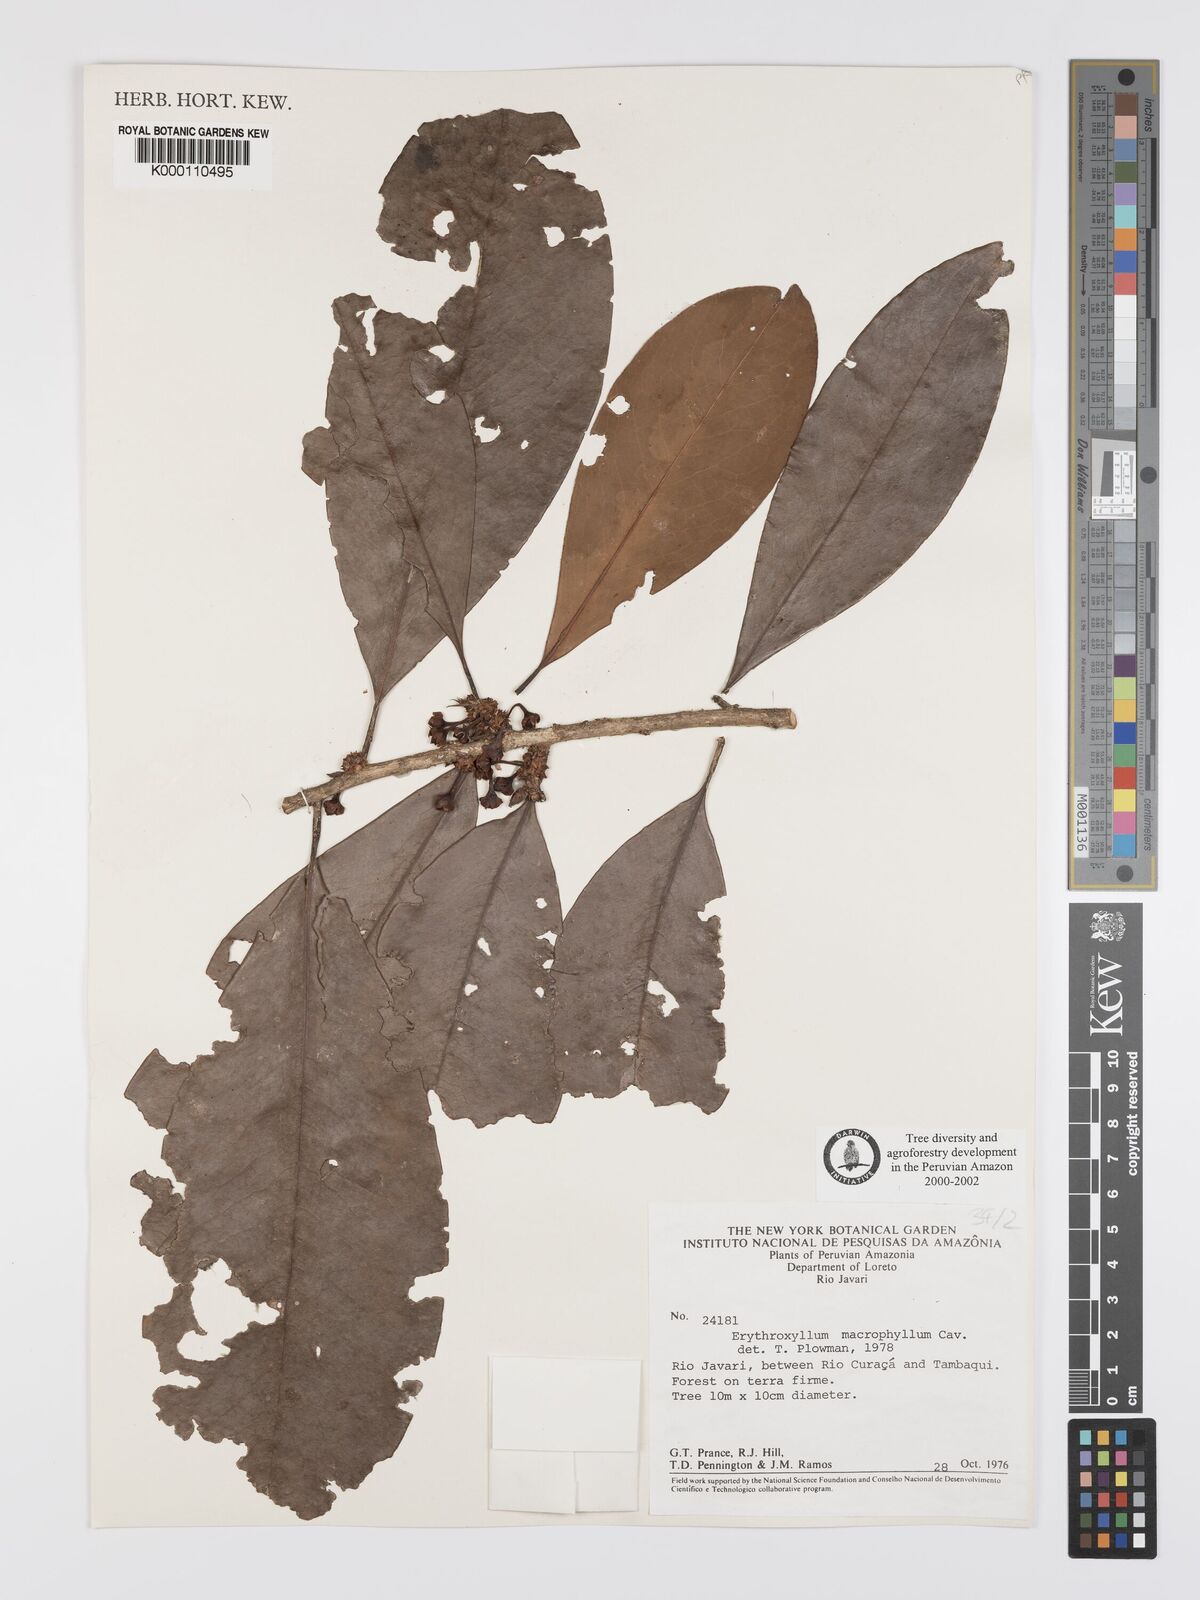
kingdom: Plantae
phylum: Tracheophyta
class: Magnoliopsida
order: Malpighiales
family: Erythroxylaceae
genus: Erythroxylum
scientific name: Erythroxylum
